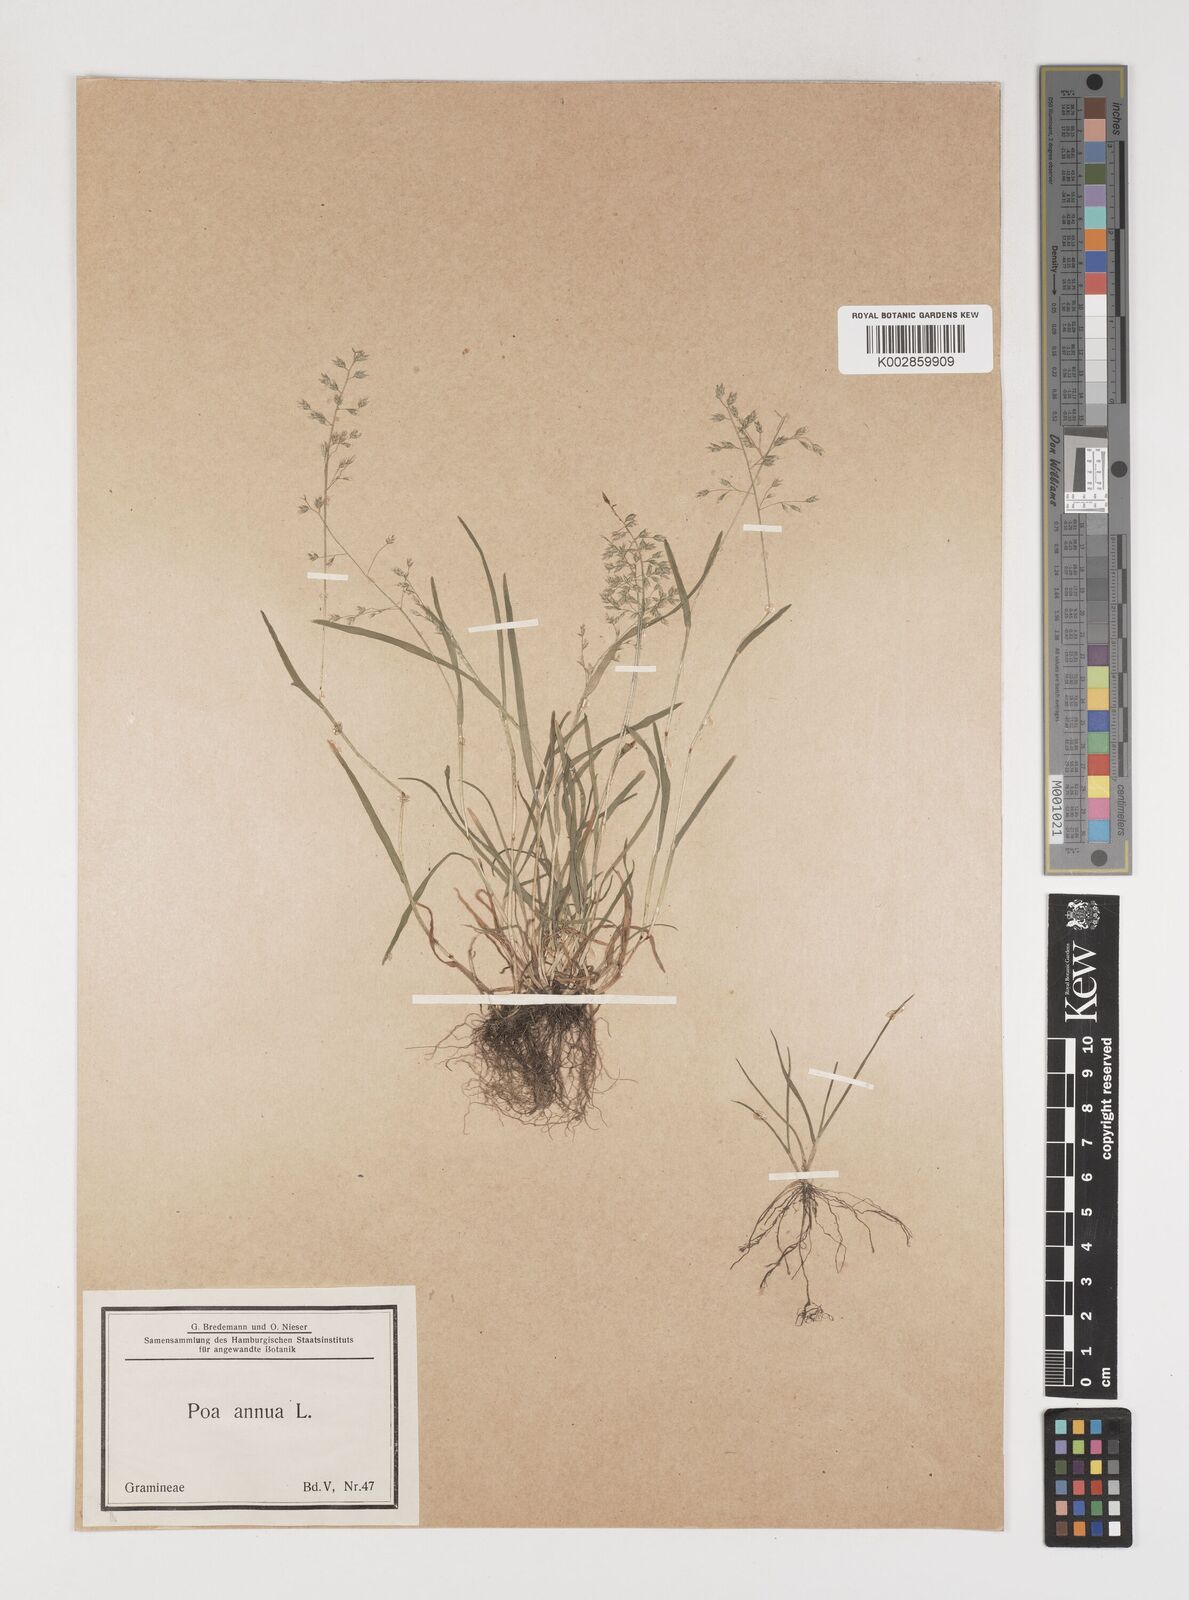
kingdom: Plantae
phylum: Tracheophyta
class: Liliopsida
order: Poales
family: Poaceae
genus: Poa
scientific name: Poa annua
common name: Annual bluegrass
